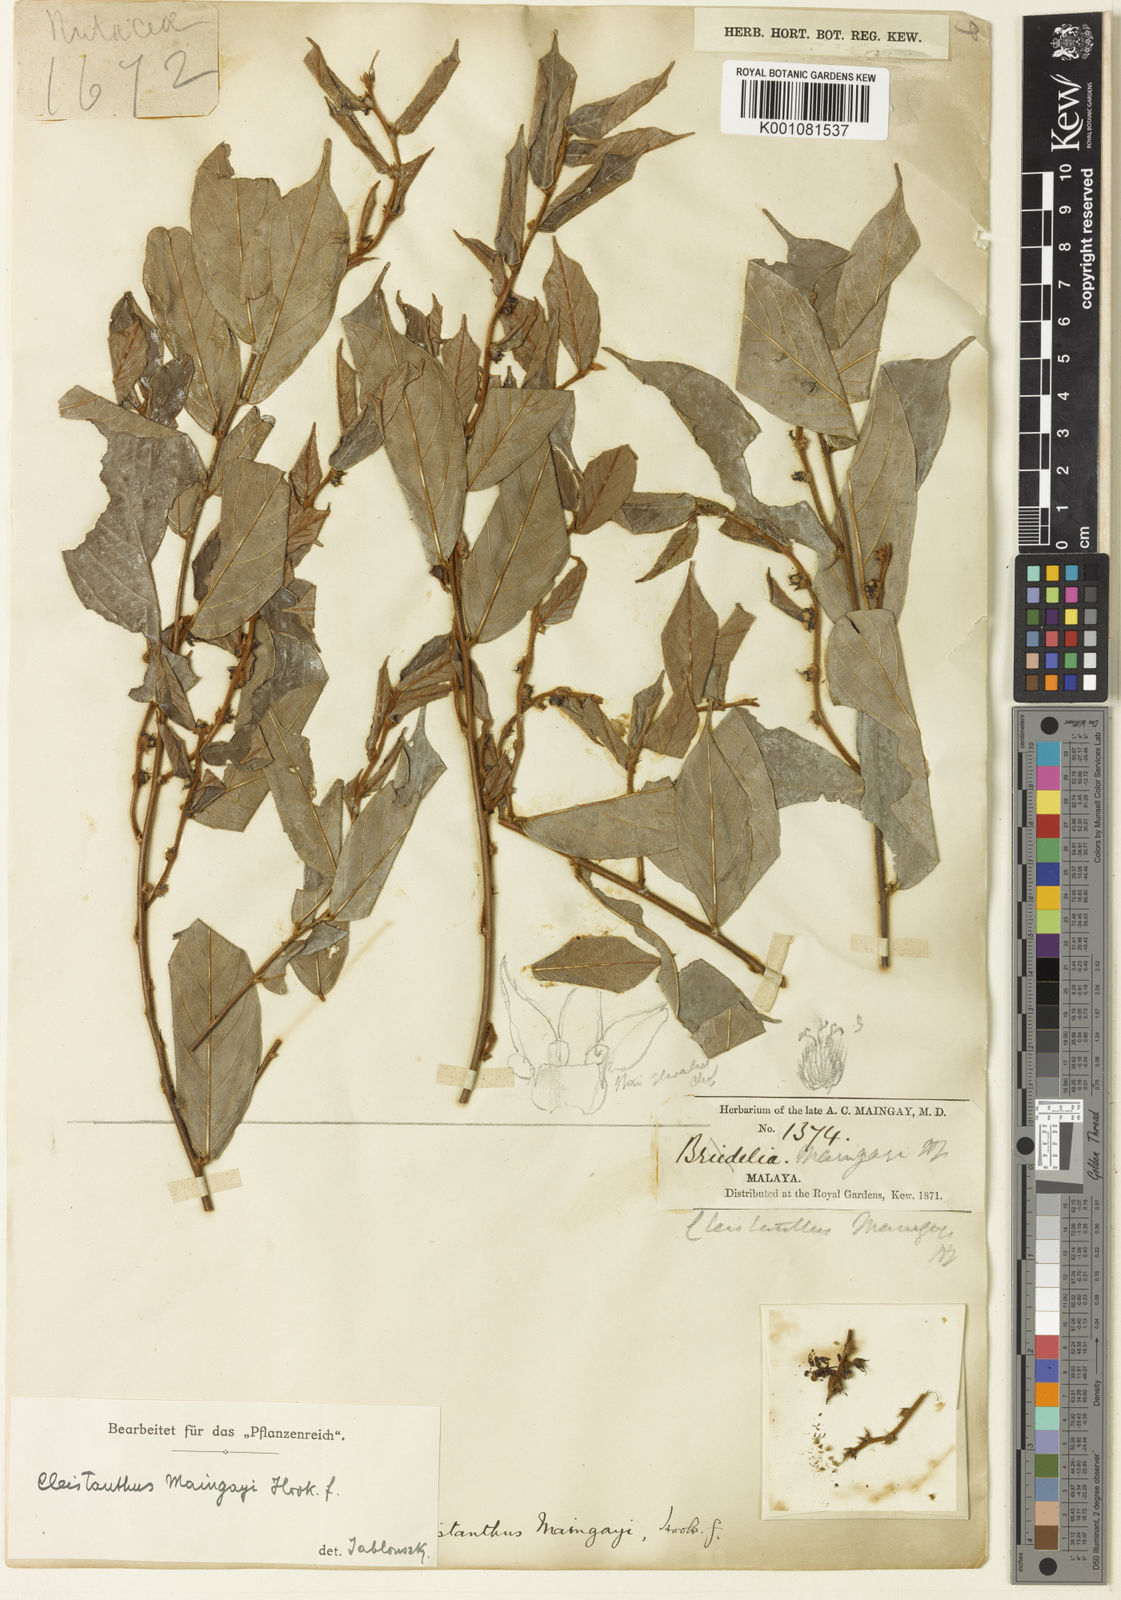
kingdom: Plantae
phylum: Tracheophyta
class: Magnoliopsida
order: Malpighiales
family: Phyllanthaceae
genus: Cleistanthus
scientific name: Cleistanthus maingayi
